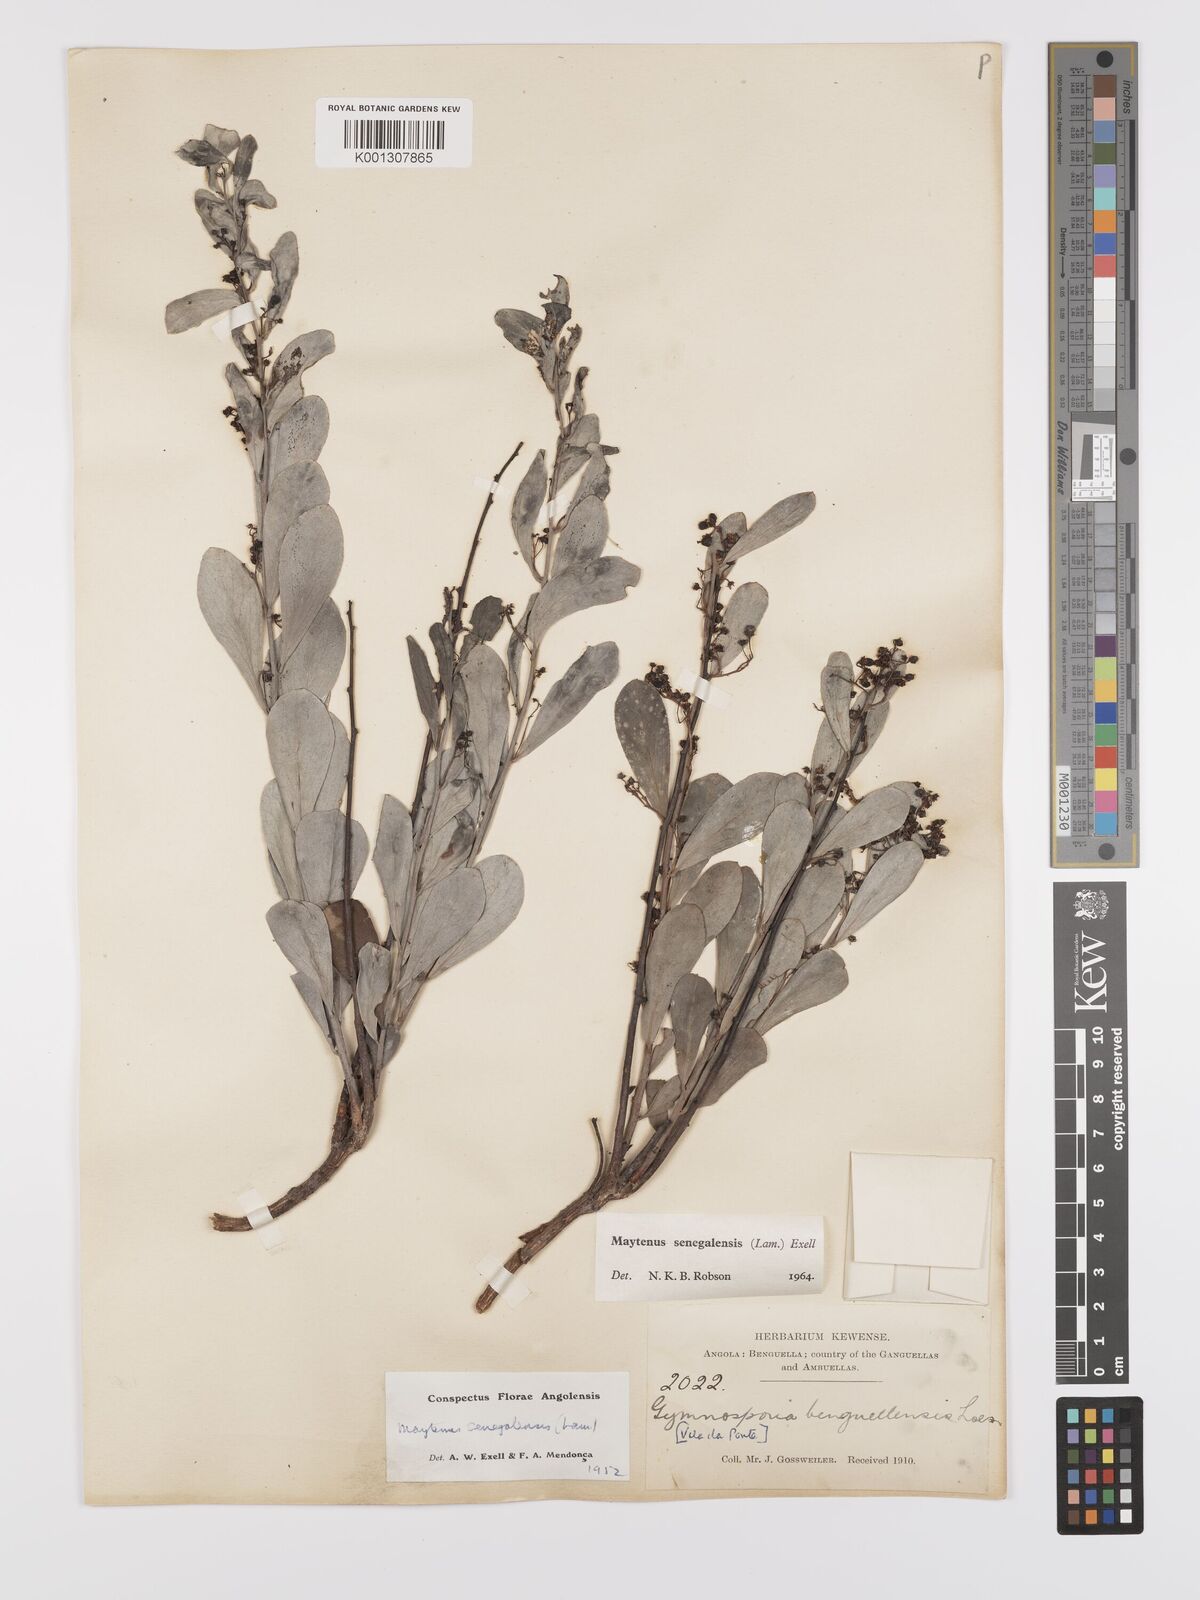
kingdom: Plantae
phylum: Tracheophyta
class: Magnoliopsida
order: Celastrales
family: Celastraceae
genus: Gymnosporia
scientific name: Gymnosporia senegalensis
